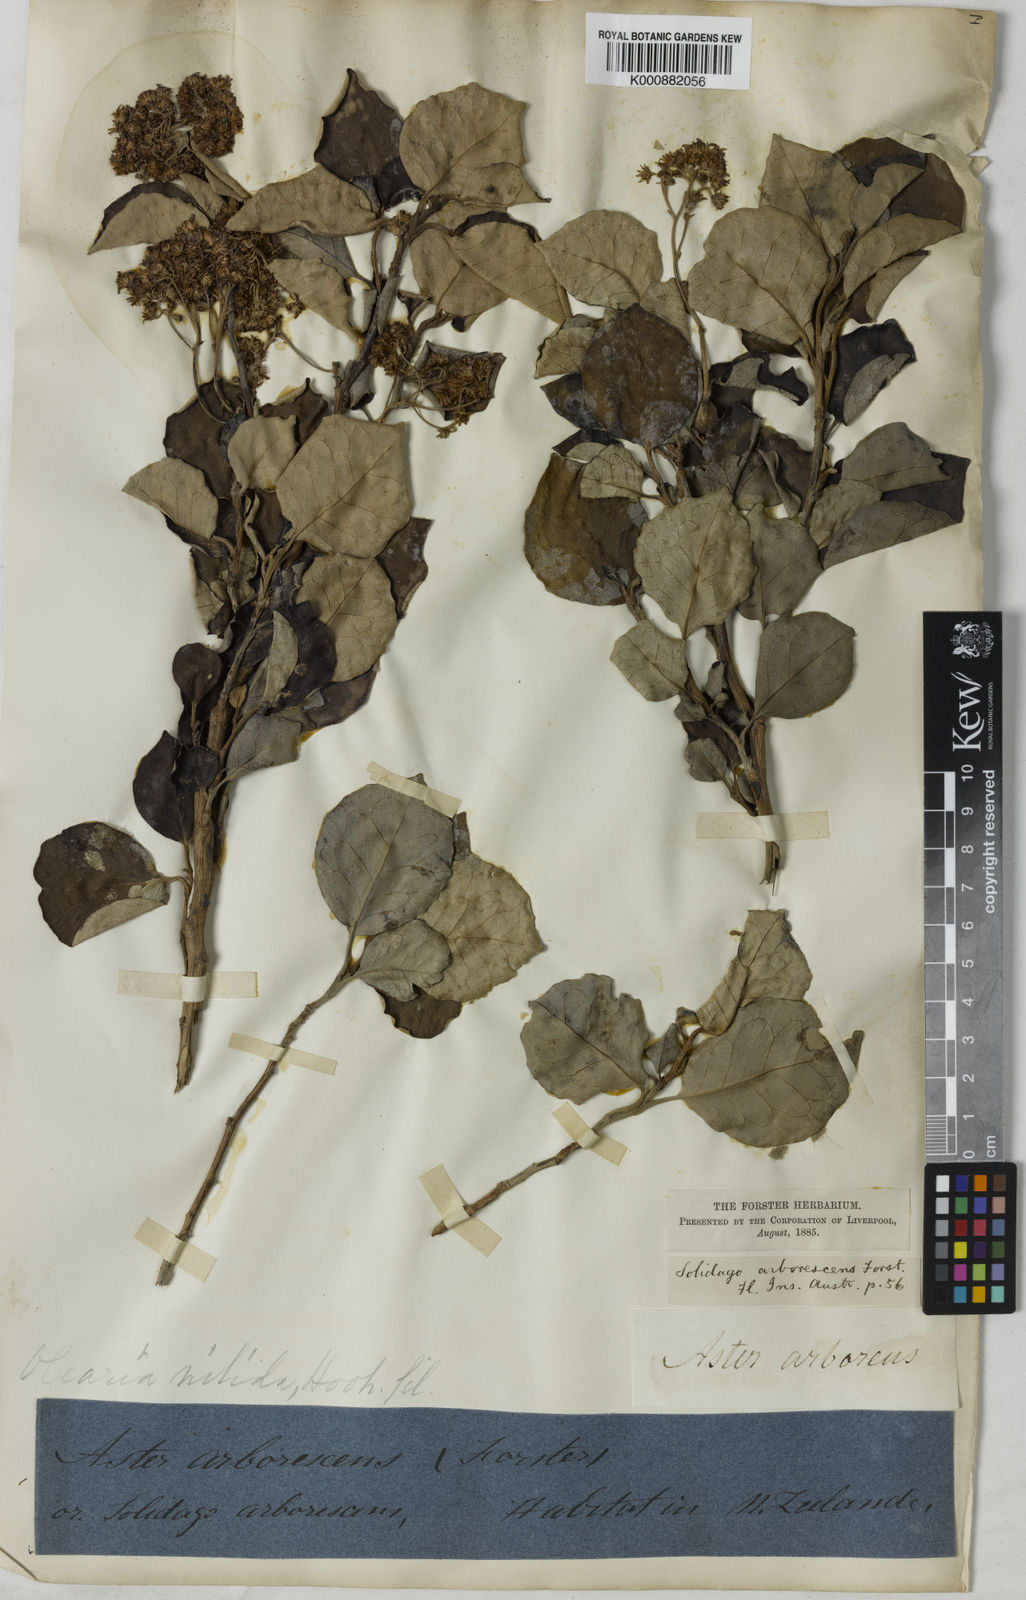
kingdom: Plantae
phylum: Tracheophyta
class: Magnoliopsida
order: Asterales
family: Asteraceae
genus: Olearia
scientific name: Olearia arborescens
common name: Glossy tree daisy
